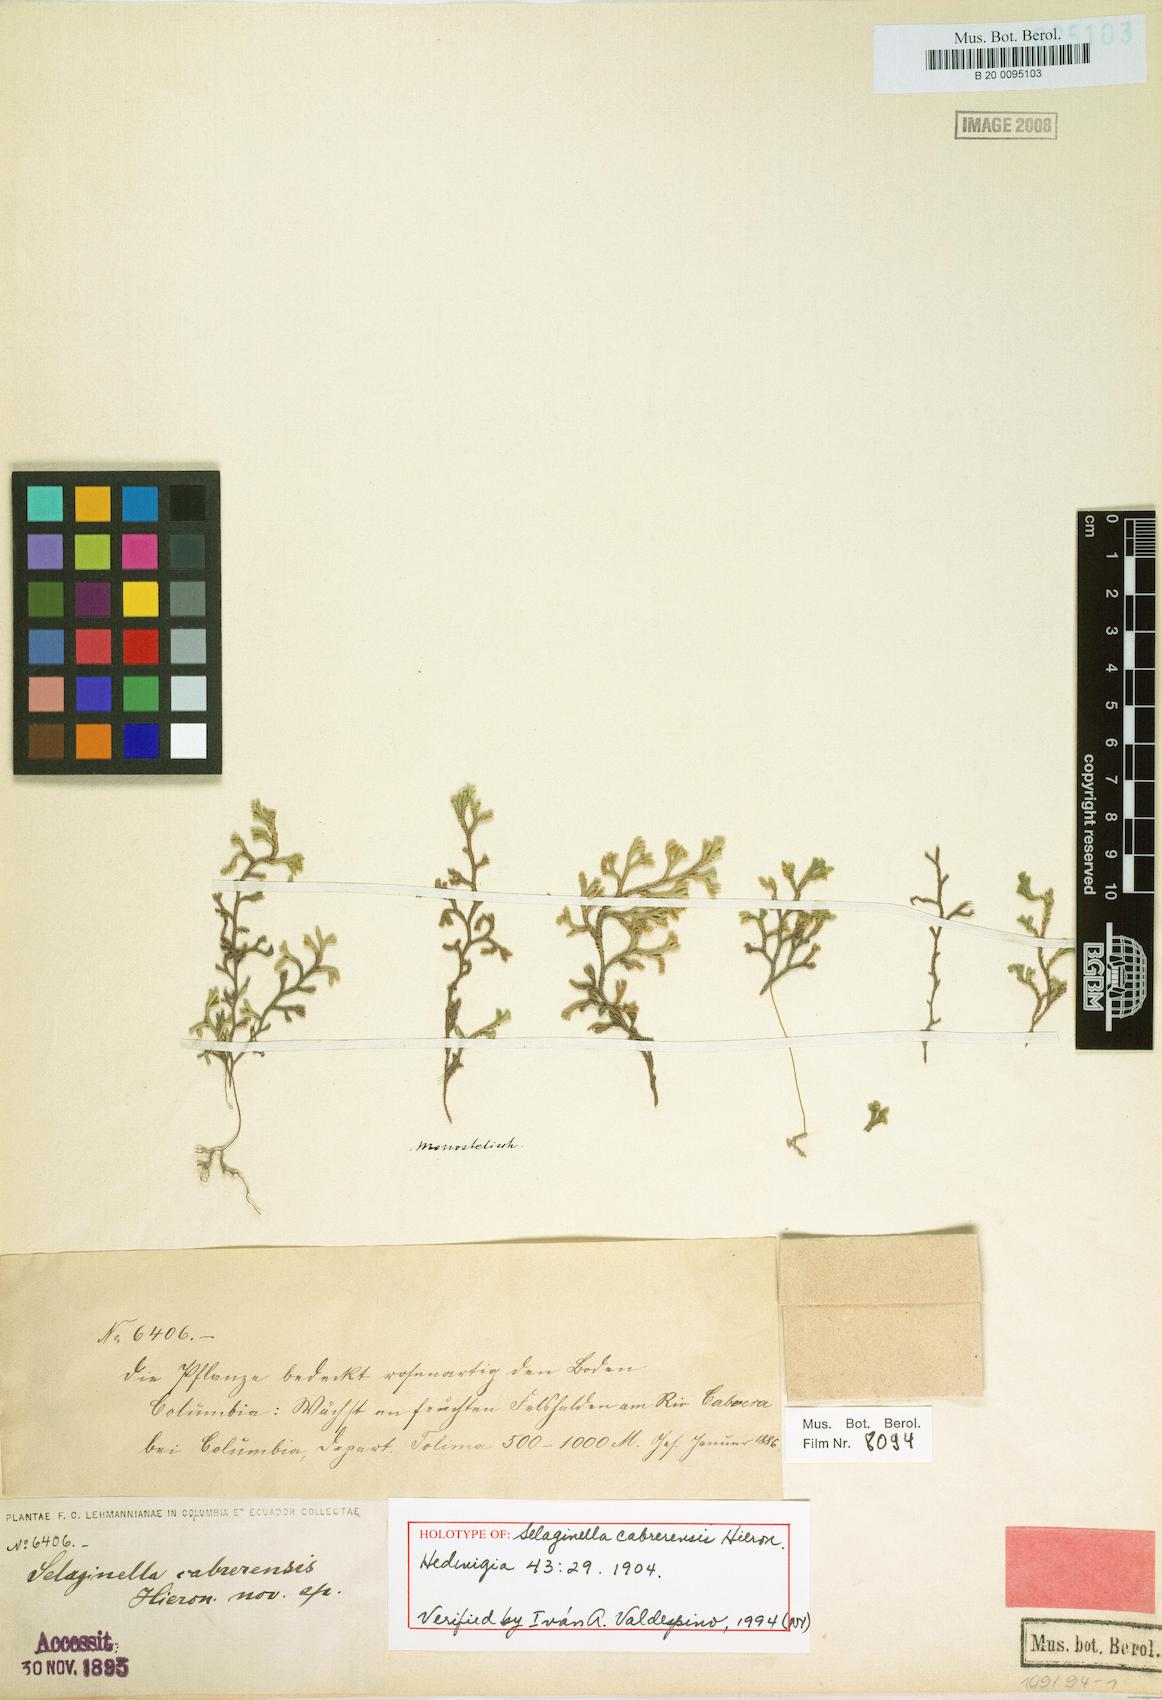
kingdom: Plantae
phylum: Tracheophyta
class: Lycopodiopsida
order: Selaginellales
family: Selaginellaceae
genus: Selaginella
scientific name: Selaginella cabrerensis
